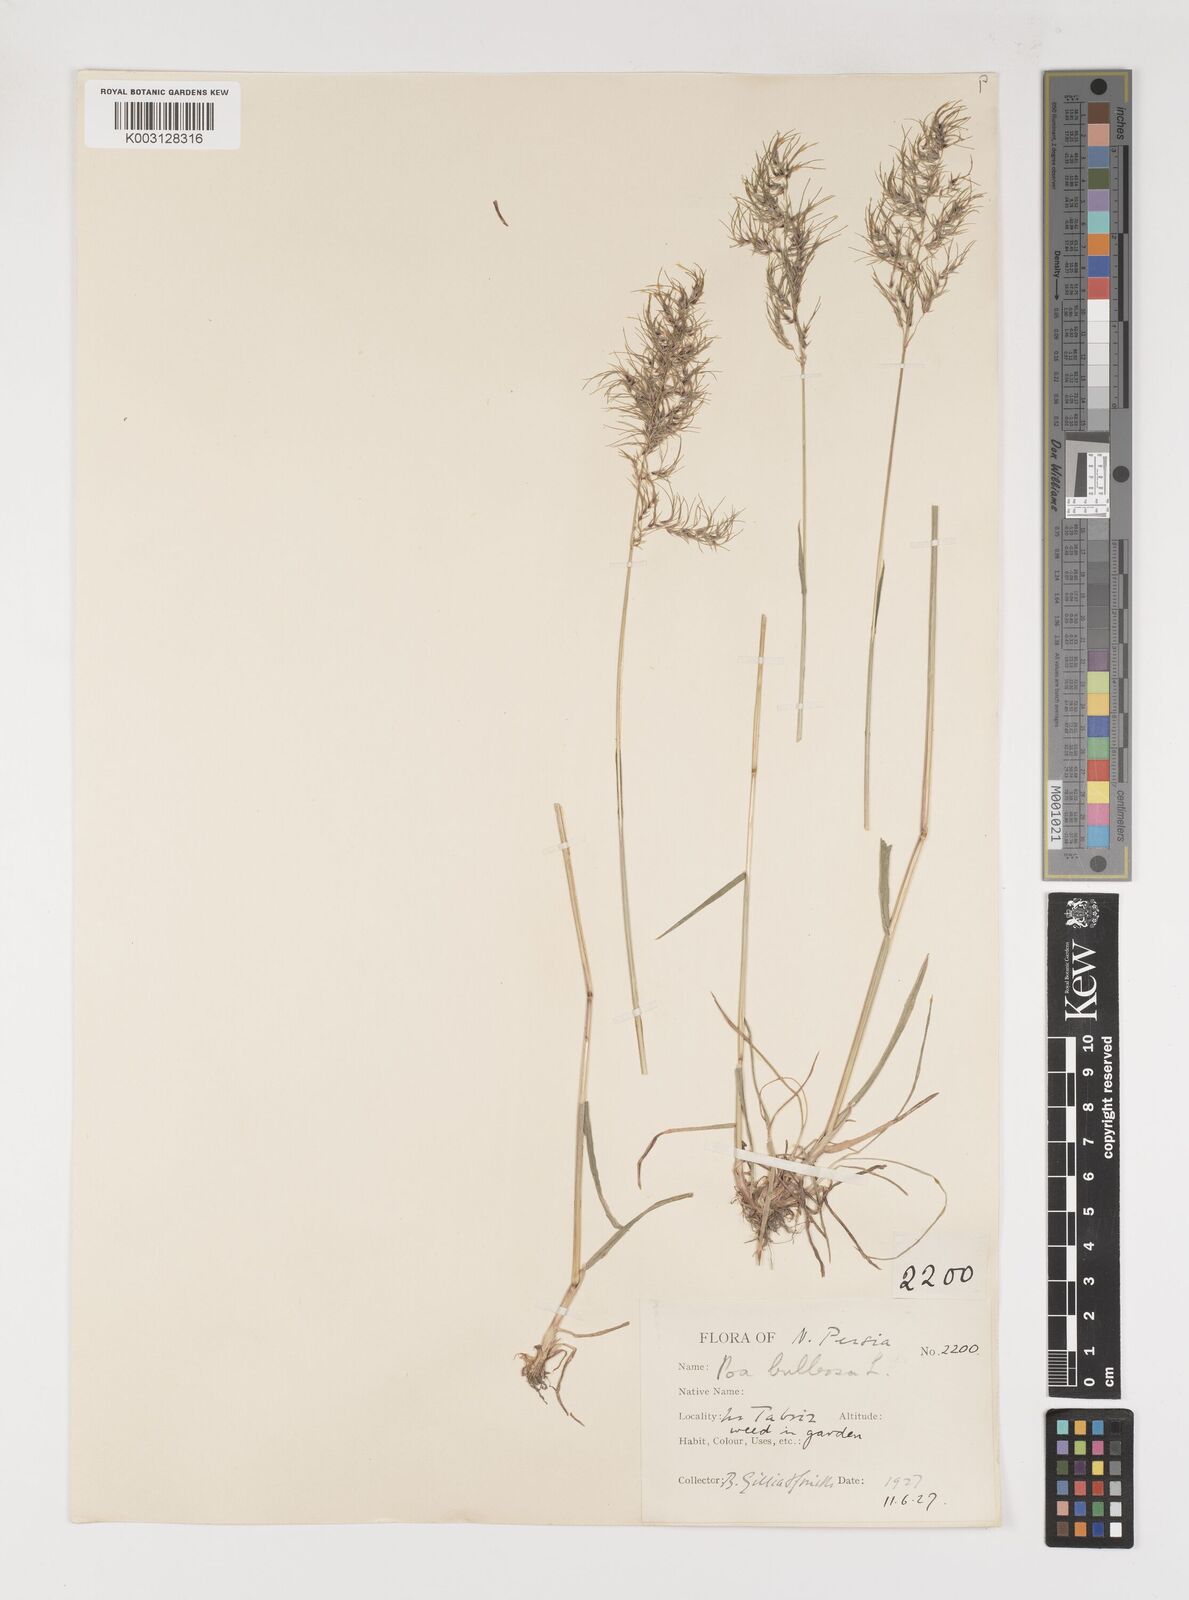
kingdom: Plantae
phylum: Tracheophyta
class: Liliopsida
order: Poales
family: Poaceae
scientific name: Poaceae
